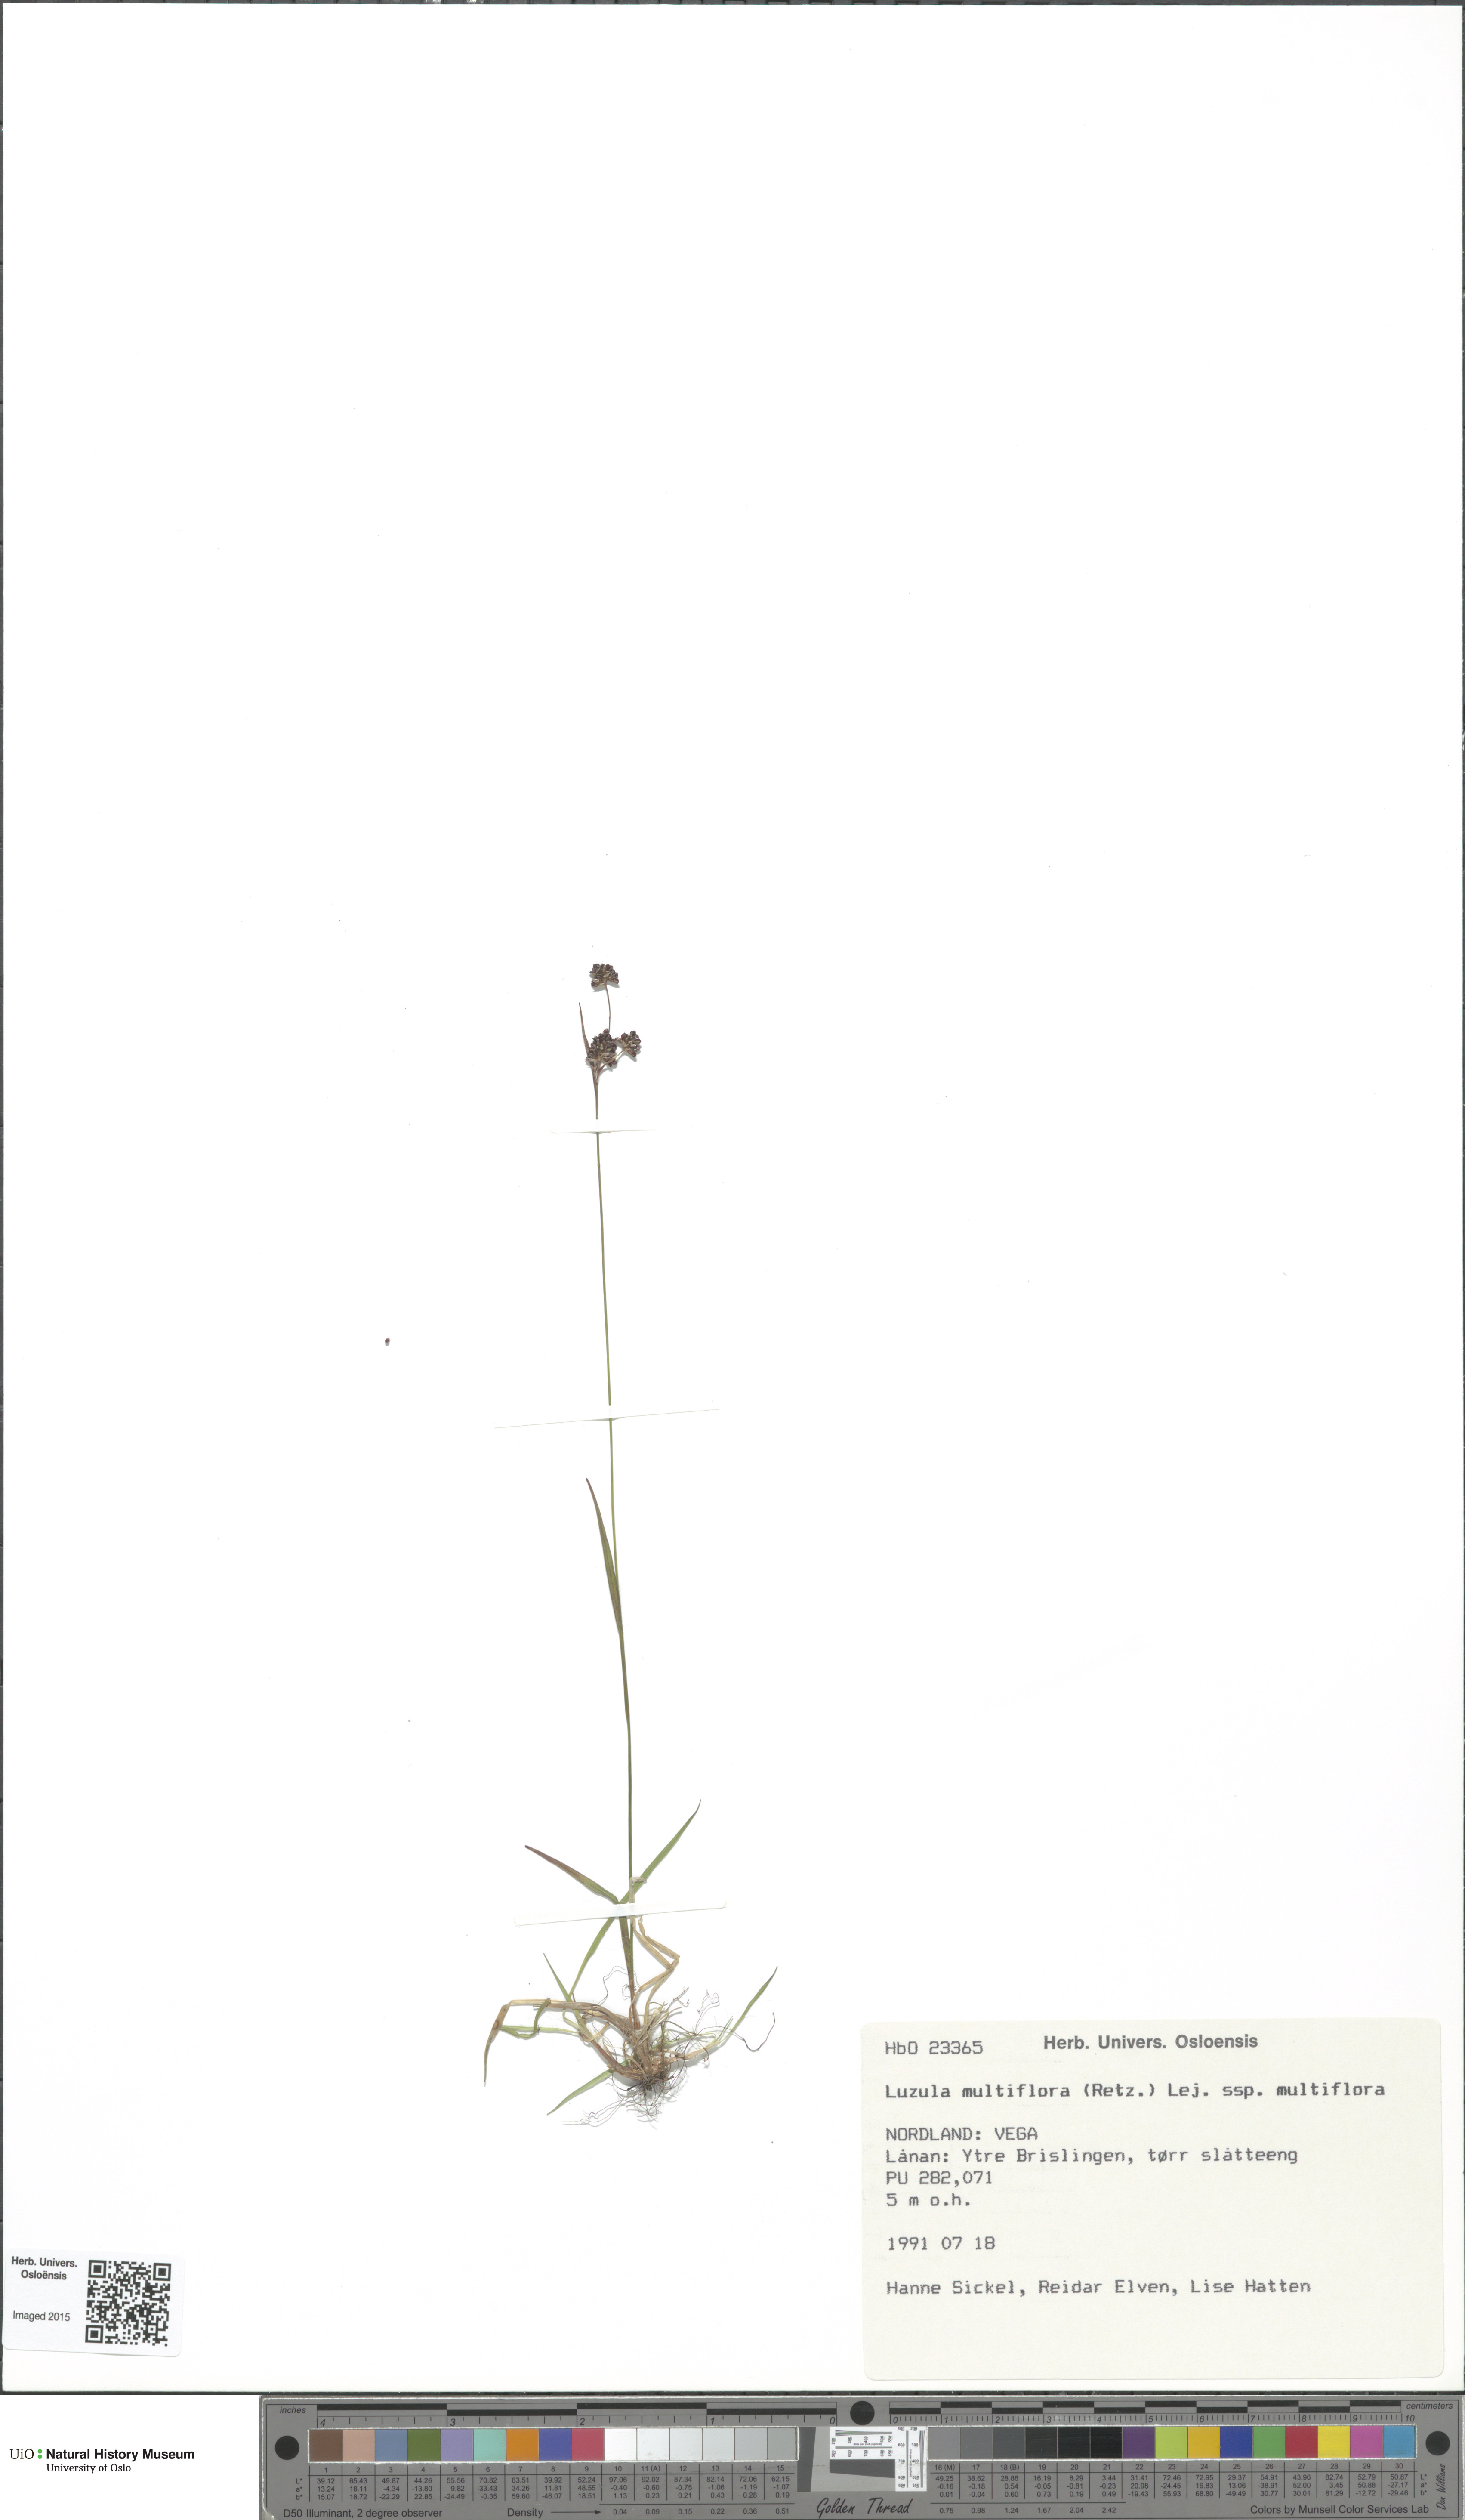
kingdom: Plantae
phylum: Tracheophyta
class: Liliopsida
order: Poales
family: Juncaceae
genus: Luzula
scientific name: Luzula multiflora
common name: Heath wood-rush
